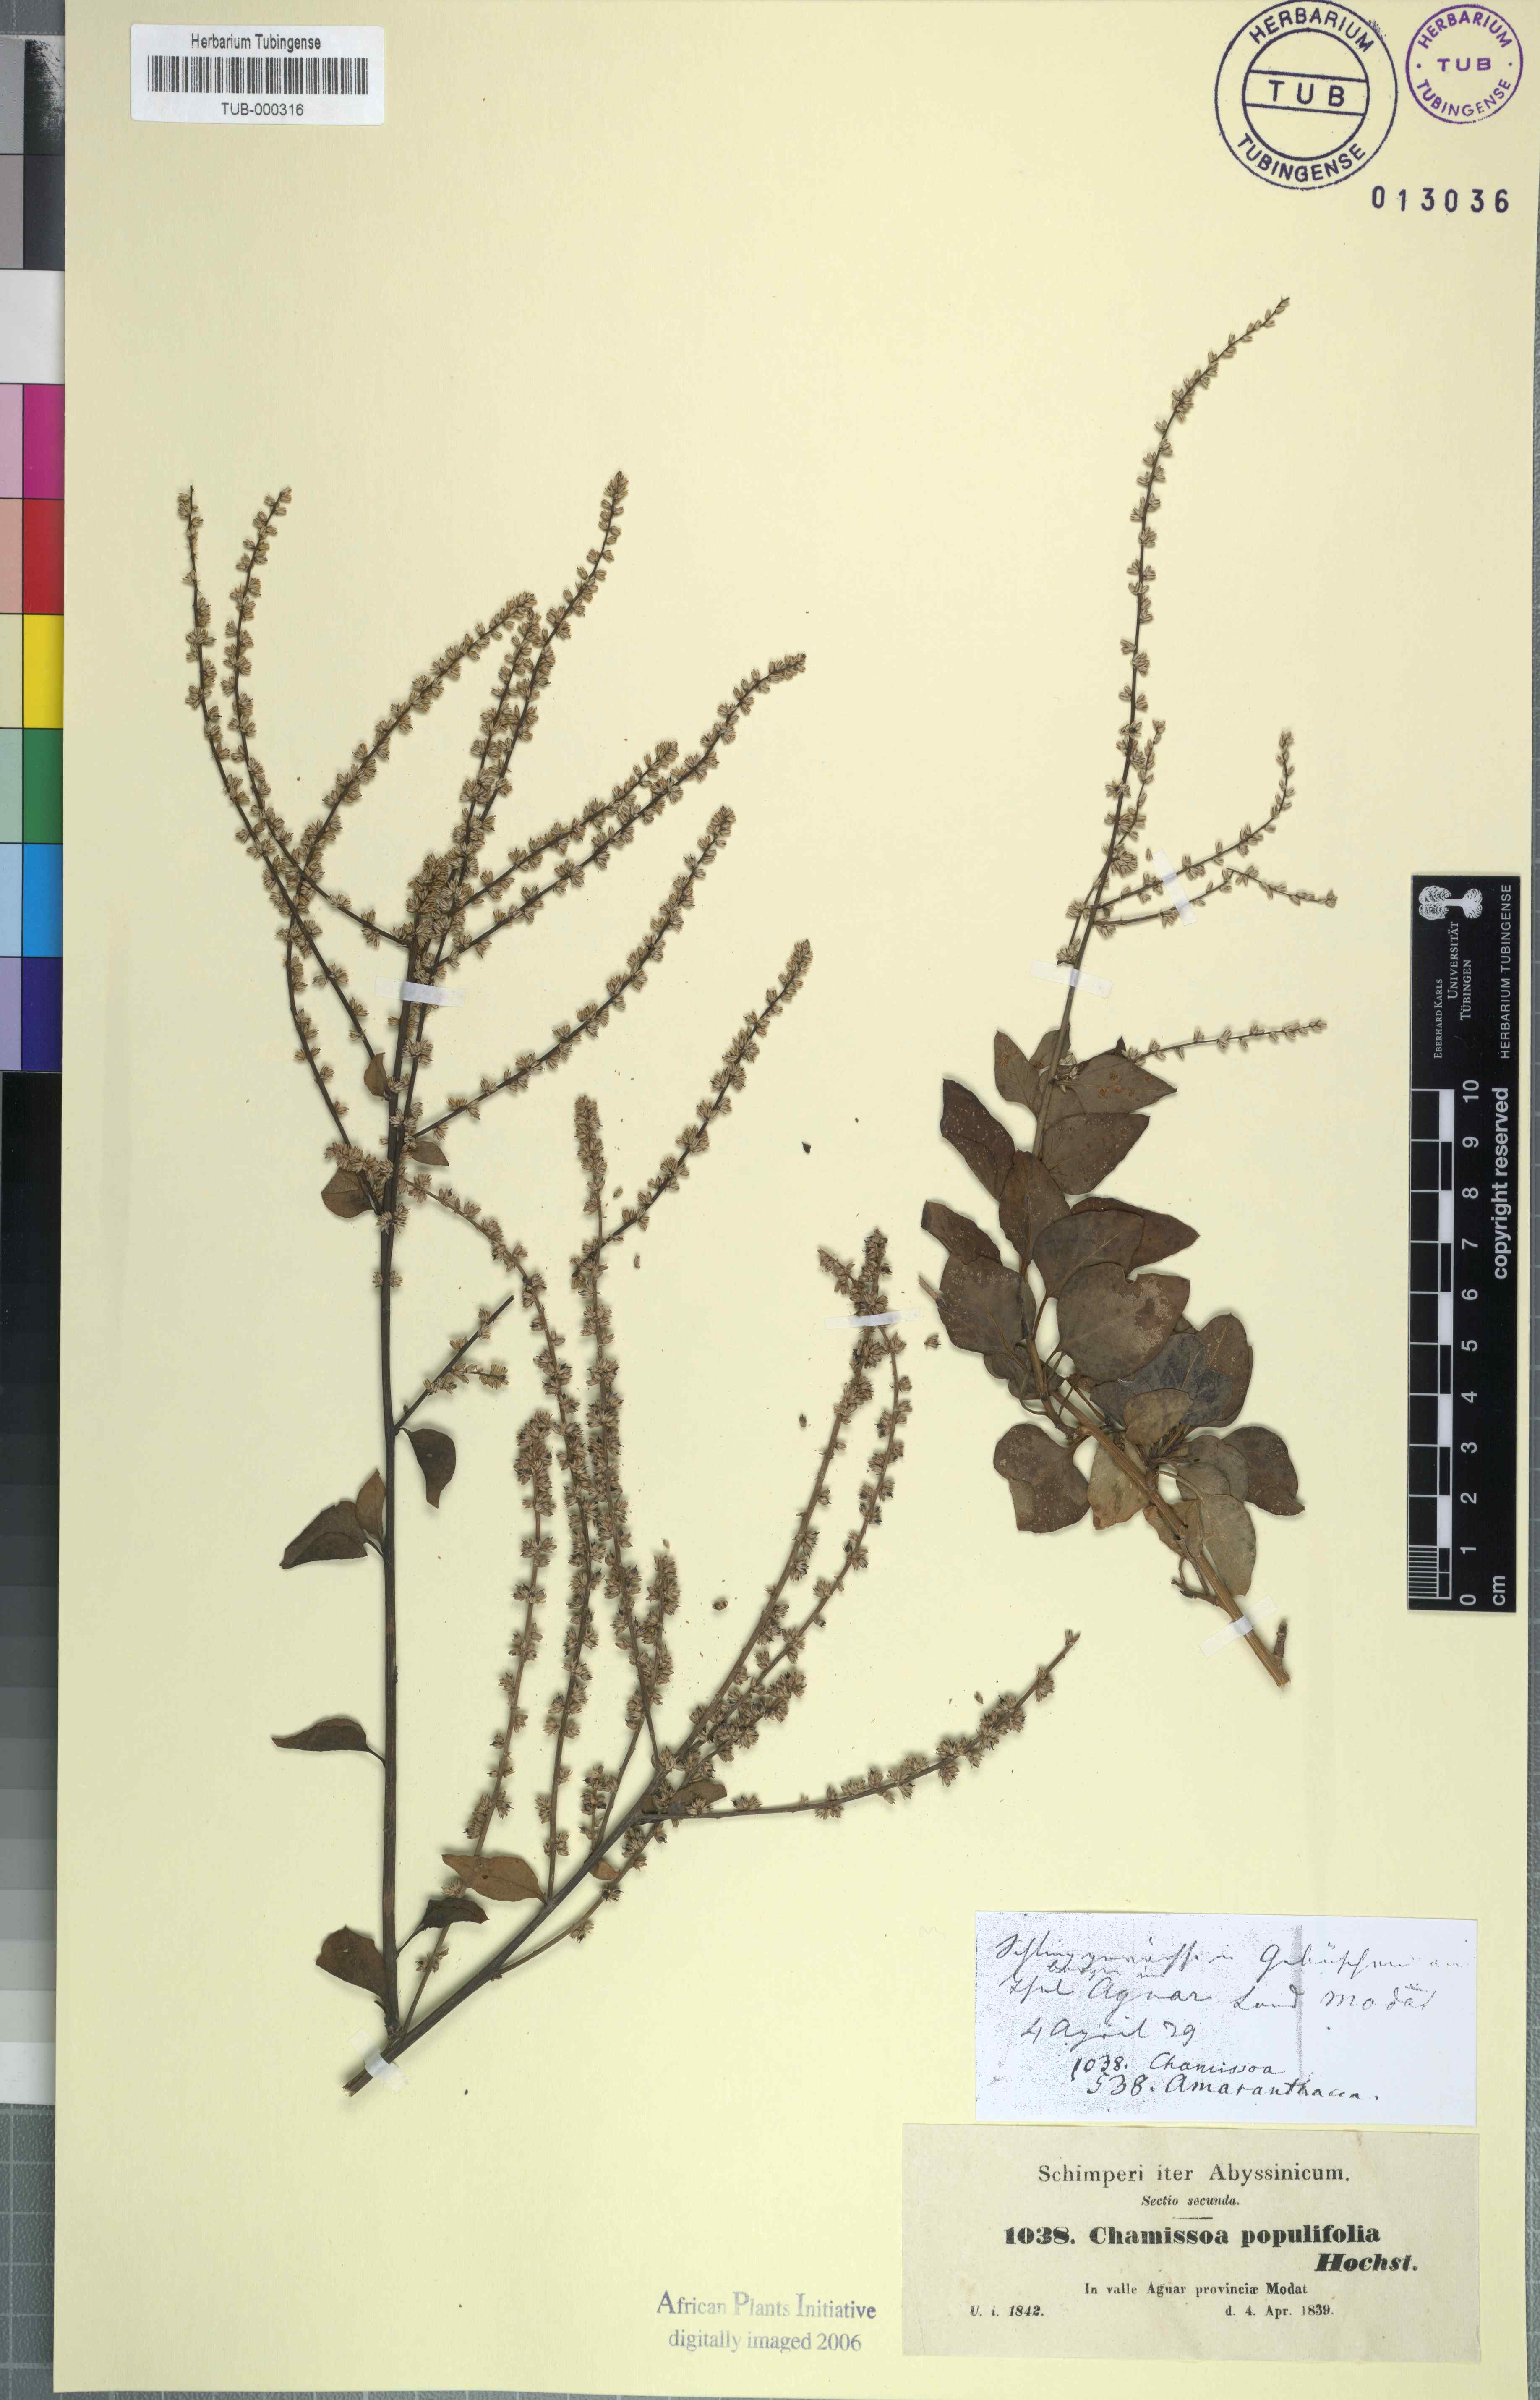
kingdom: Plantae
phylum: Tracheophyta
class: Magnoliopsida
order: Caryophyllales
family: Amaranthaceae
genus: Celosia
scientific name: Celosia polystachya
